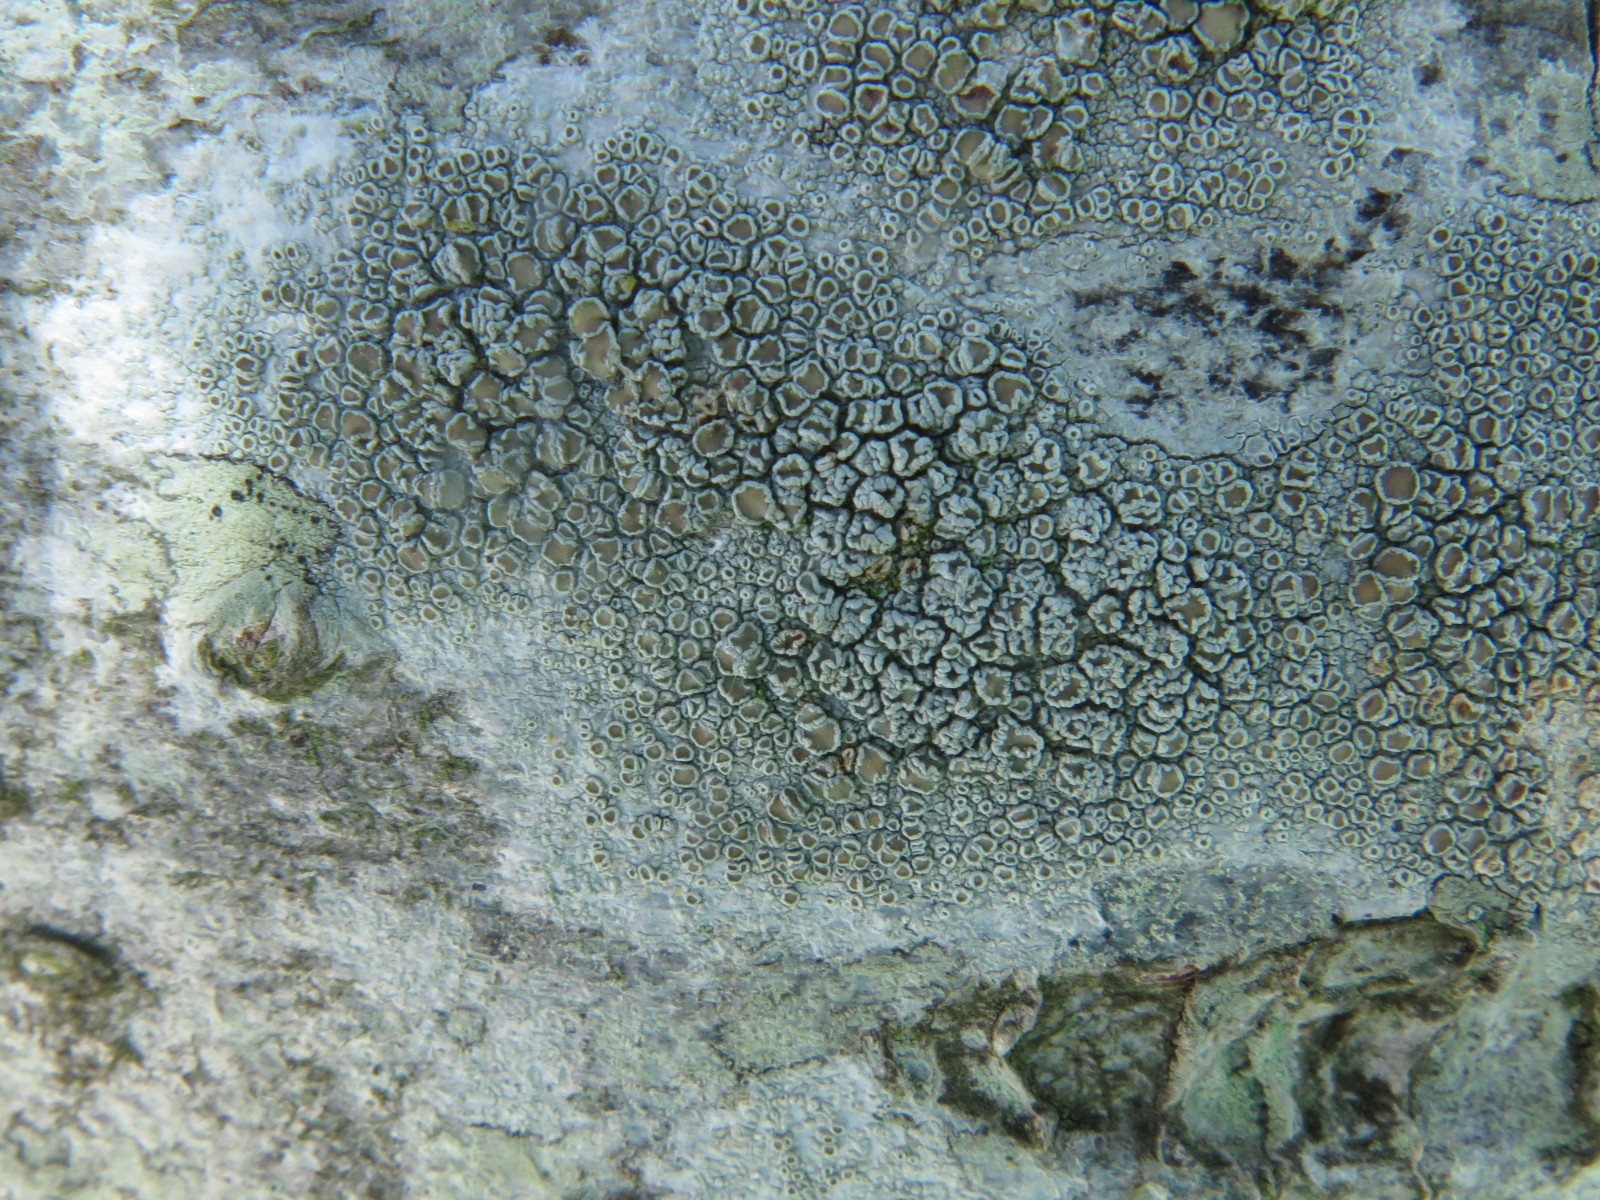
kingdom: Fungi
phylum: Ascomycota
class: Lecanoromycetes
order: Lecanorales
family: Lecanoraceae
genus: Lecanora
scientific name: Lecanora chlarotera
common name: brun kantskivelav
